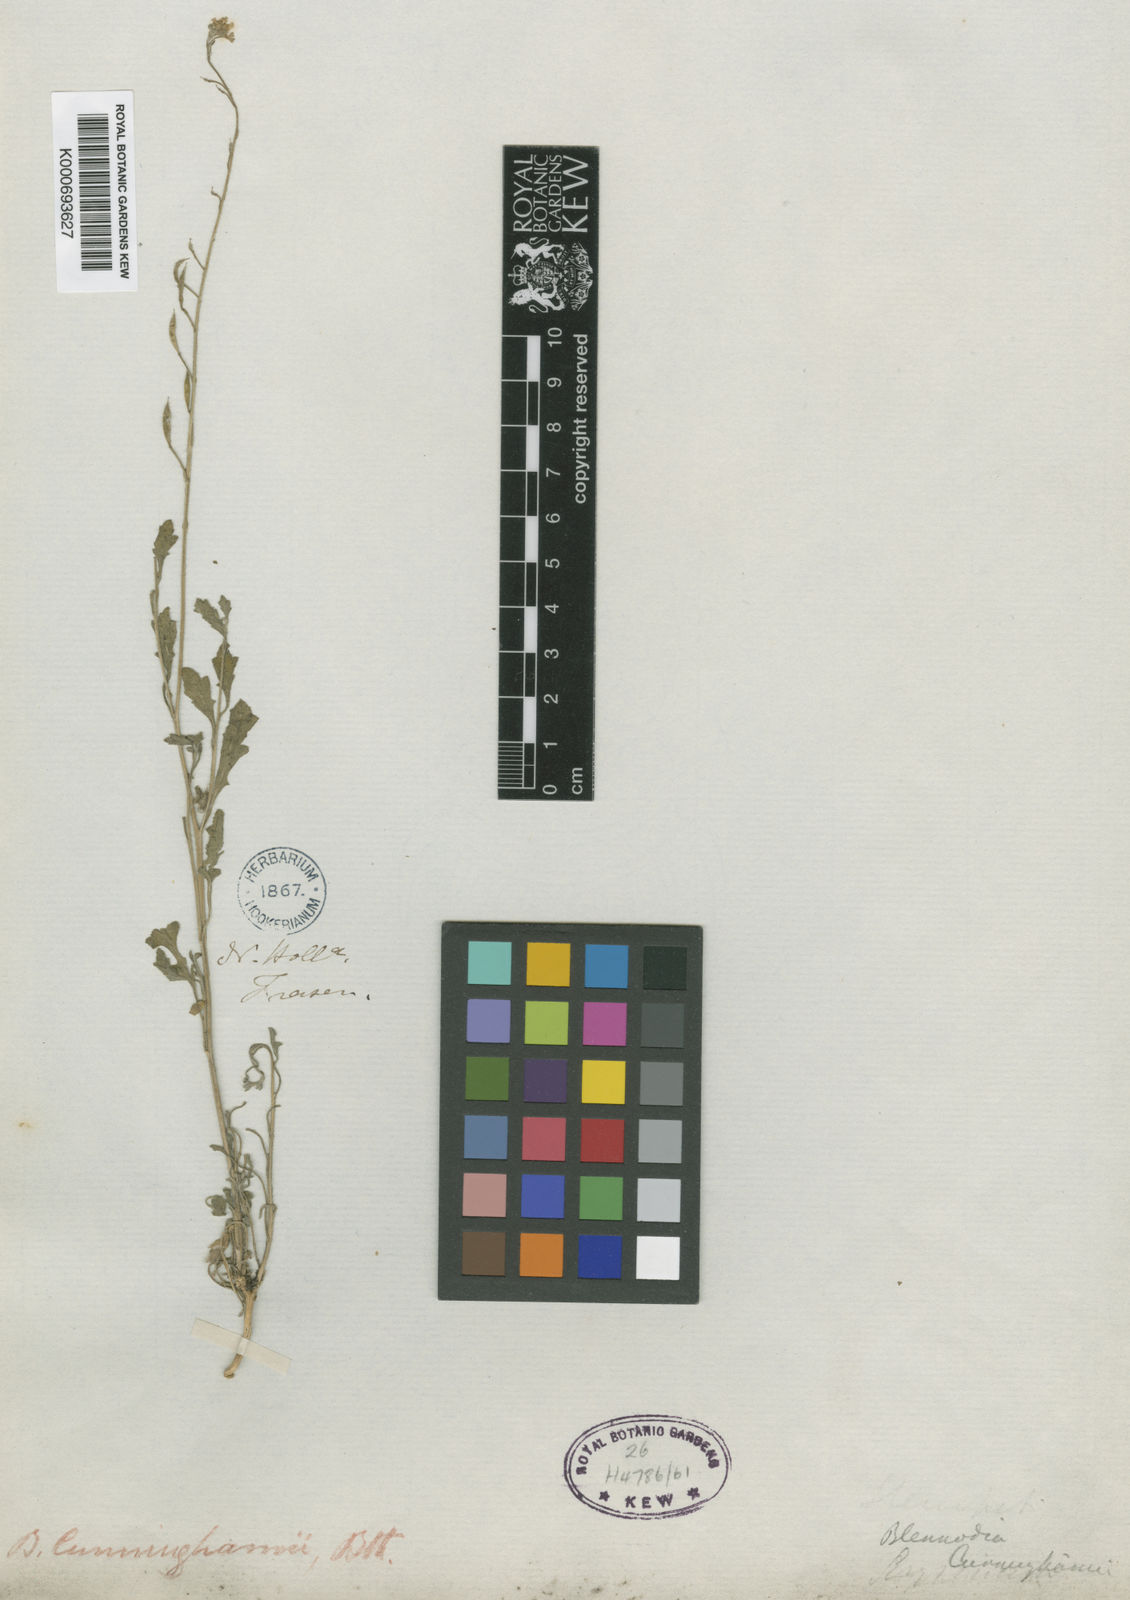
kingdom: Plantae
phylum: Tracheophyta
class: Magnoliopsida
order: Brassicales
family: Brassicaceae
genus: Harmsiodoxa
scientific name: Harmsiodoxa blennodioides
